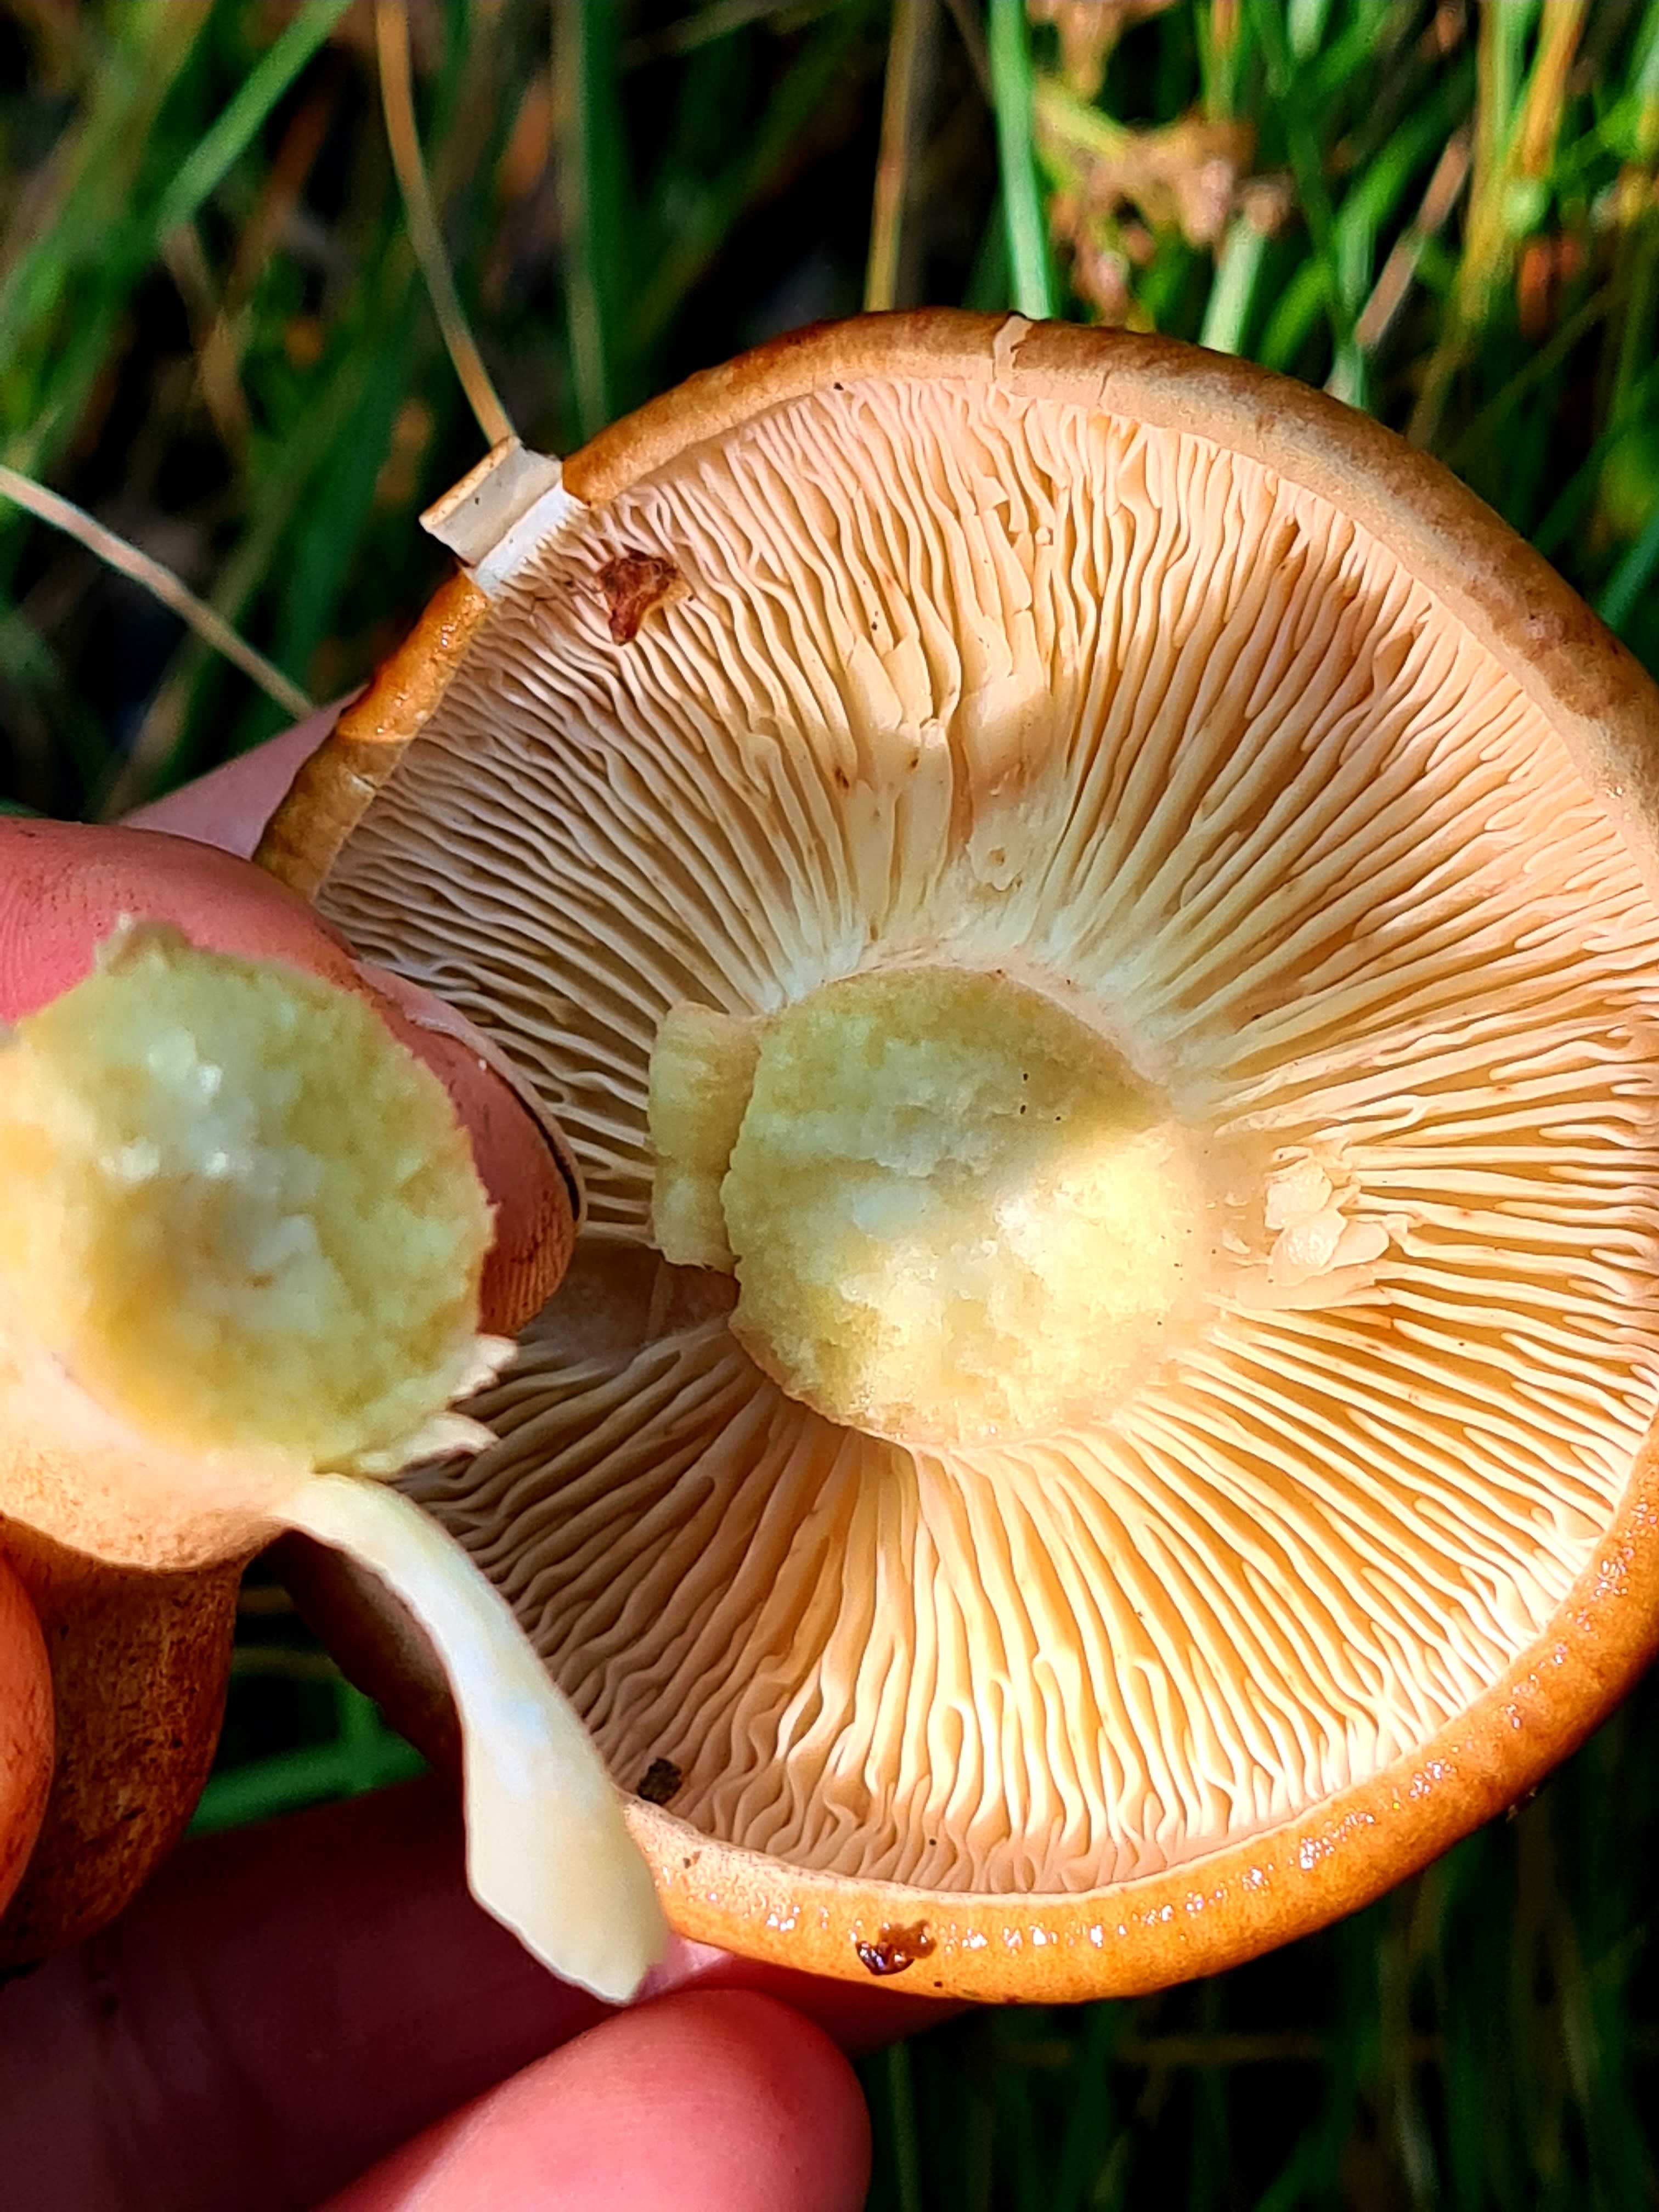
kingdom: Fungi
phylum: Basidiomycota
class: Agaricomycetes
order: Agaricales
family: Tricholomataceae
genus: Tricholoma
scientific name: Tricholoma fulvum
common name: birke-ridderhat
